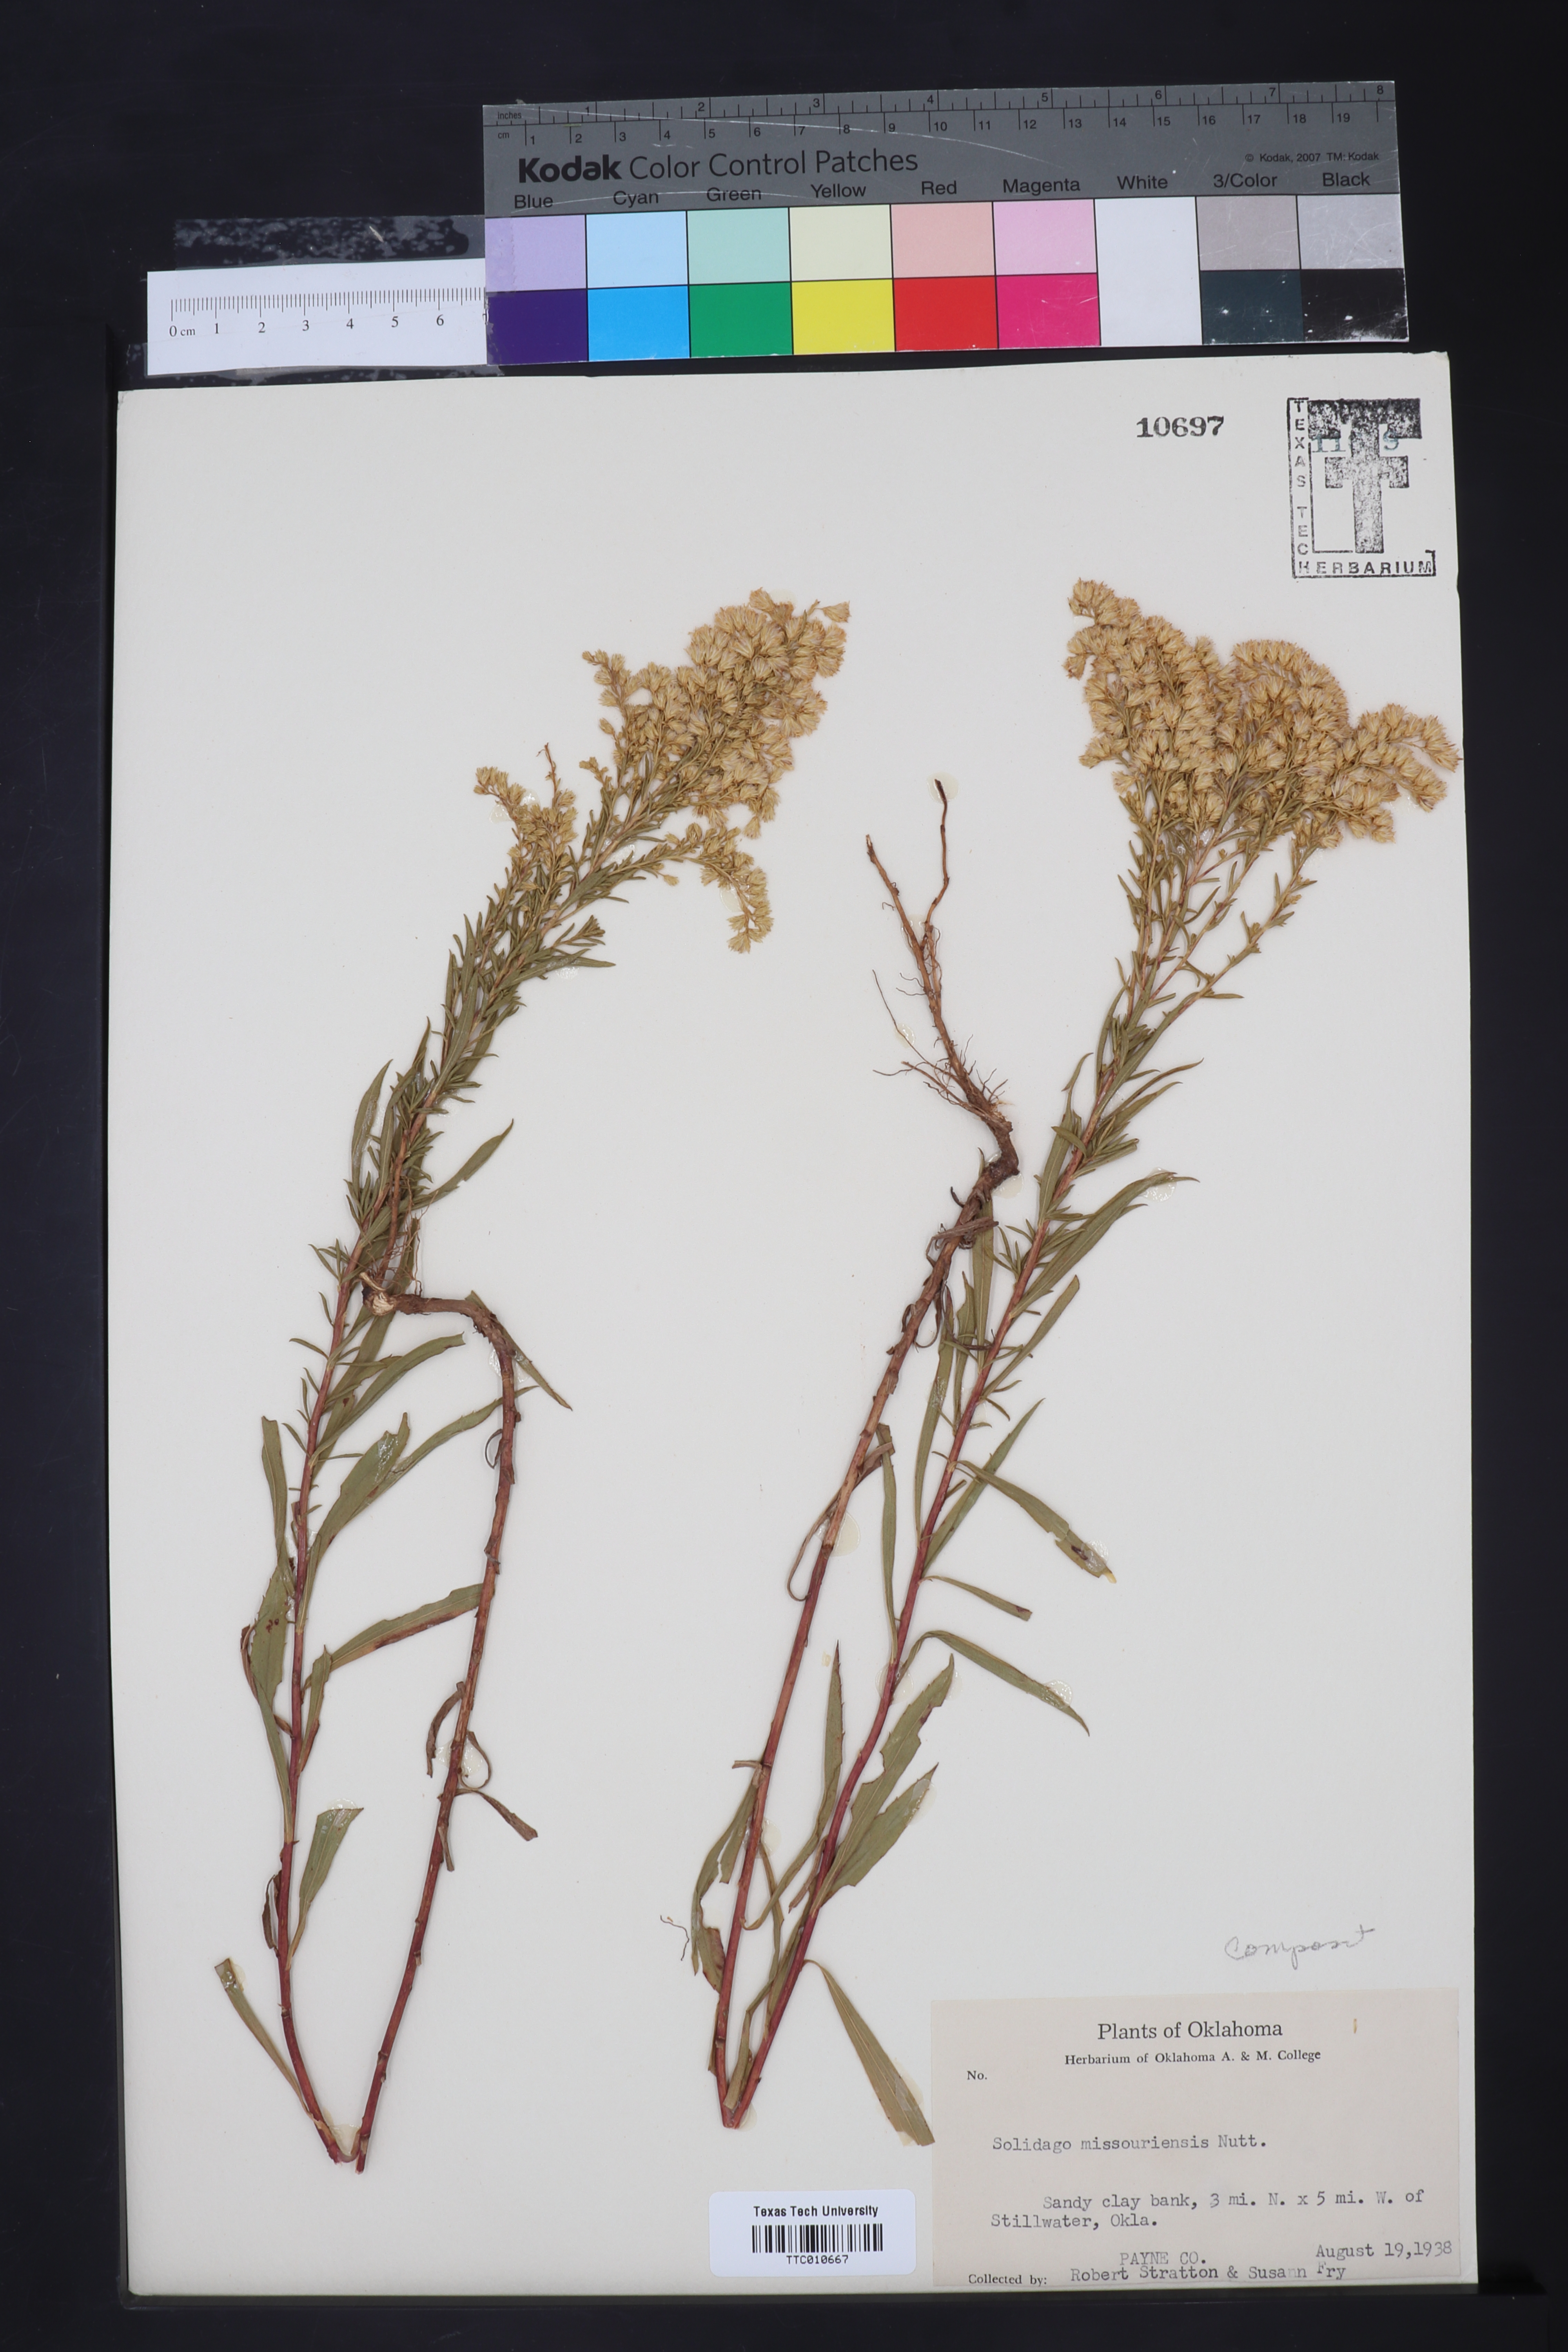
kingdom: Plantae
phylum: Tracheophyta
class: Magnoliopsida
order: Asterales
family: Asteraceae
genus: Solidago
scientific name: Solidago missouriensis
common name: Prairie goldenrod
